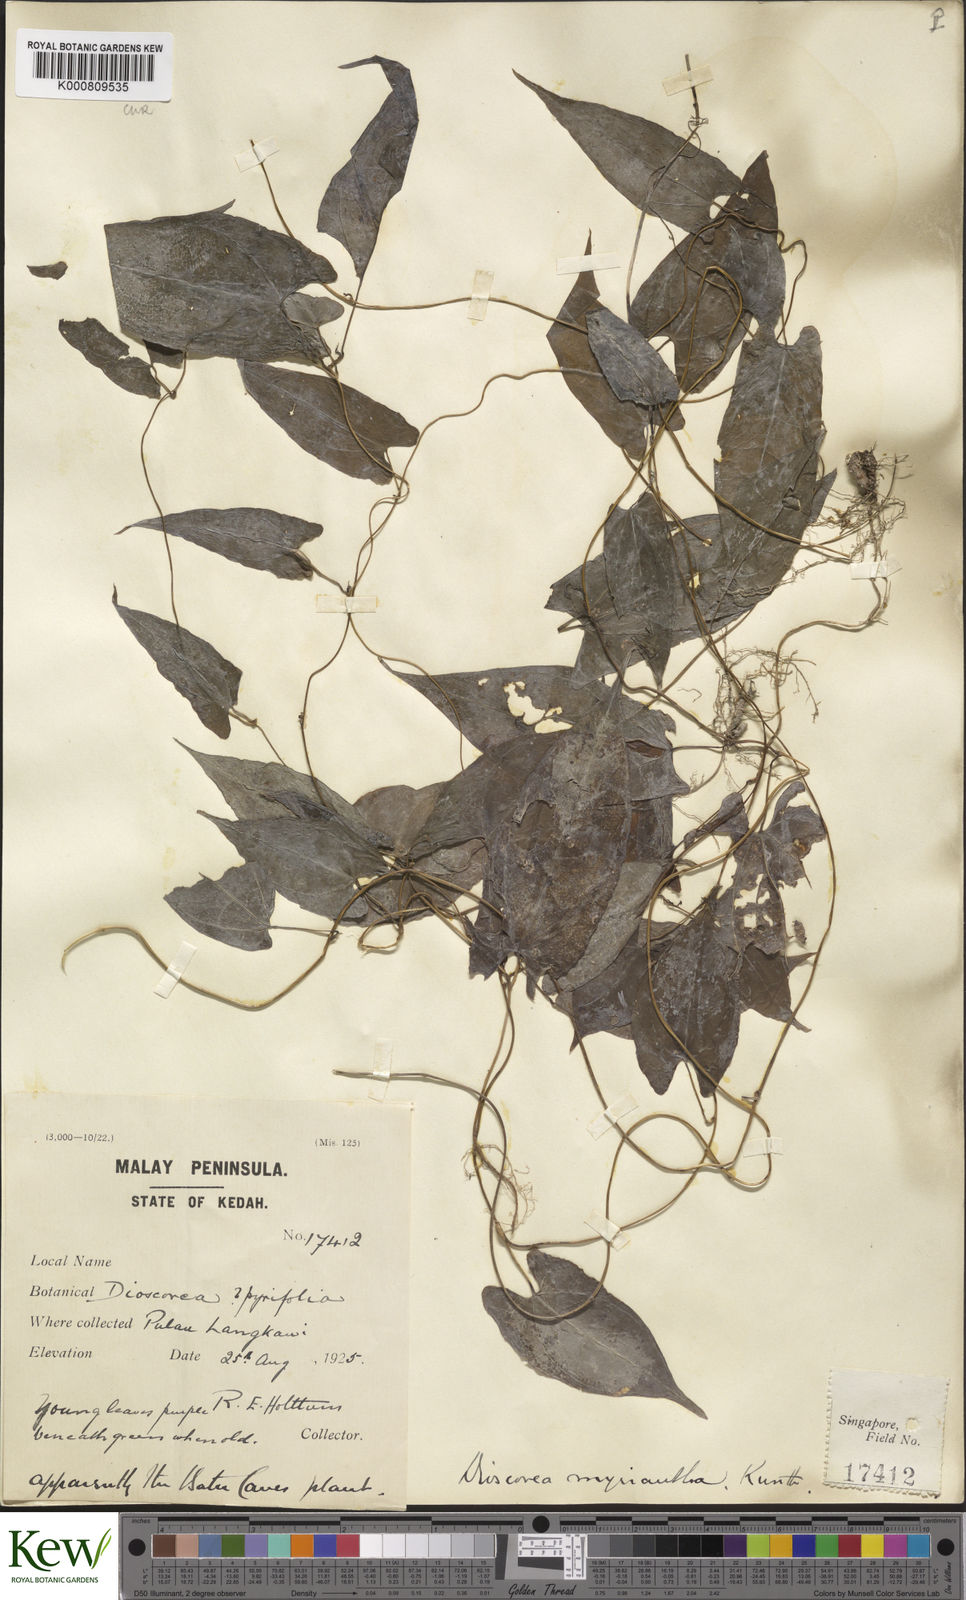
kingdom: Plantae
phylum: Tracheophyta
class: Liliopsida
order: Dioscoreales
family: Dioscoreaceae
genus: Dioscorea
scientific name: Dioscorea filiformis
